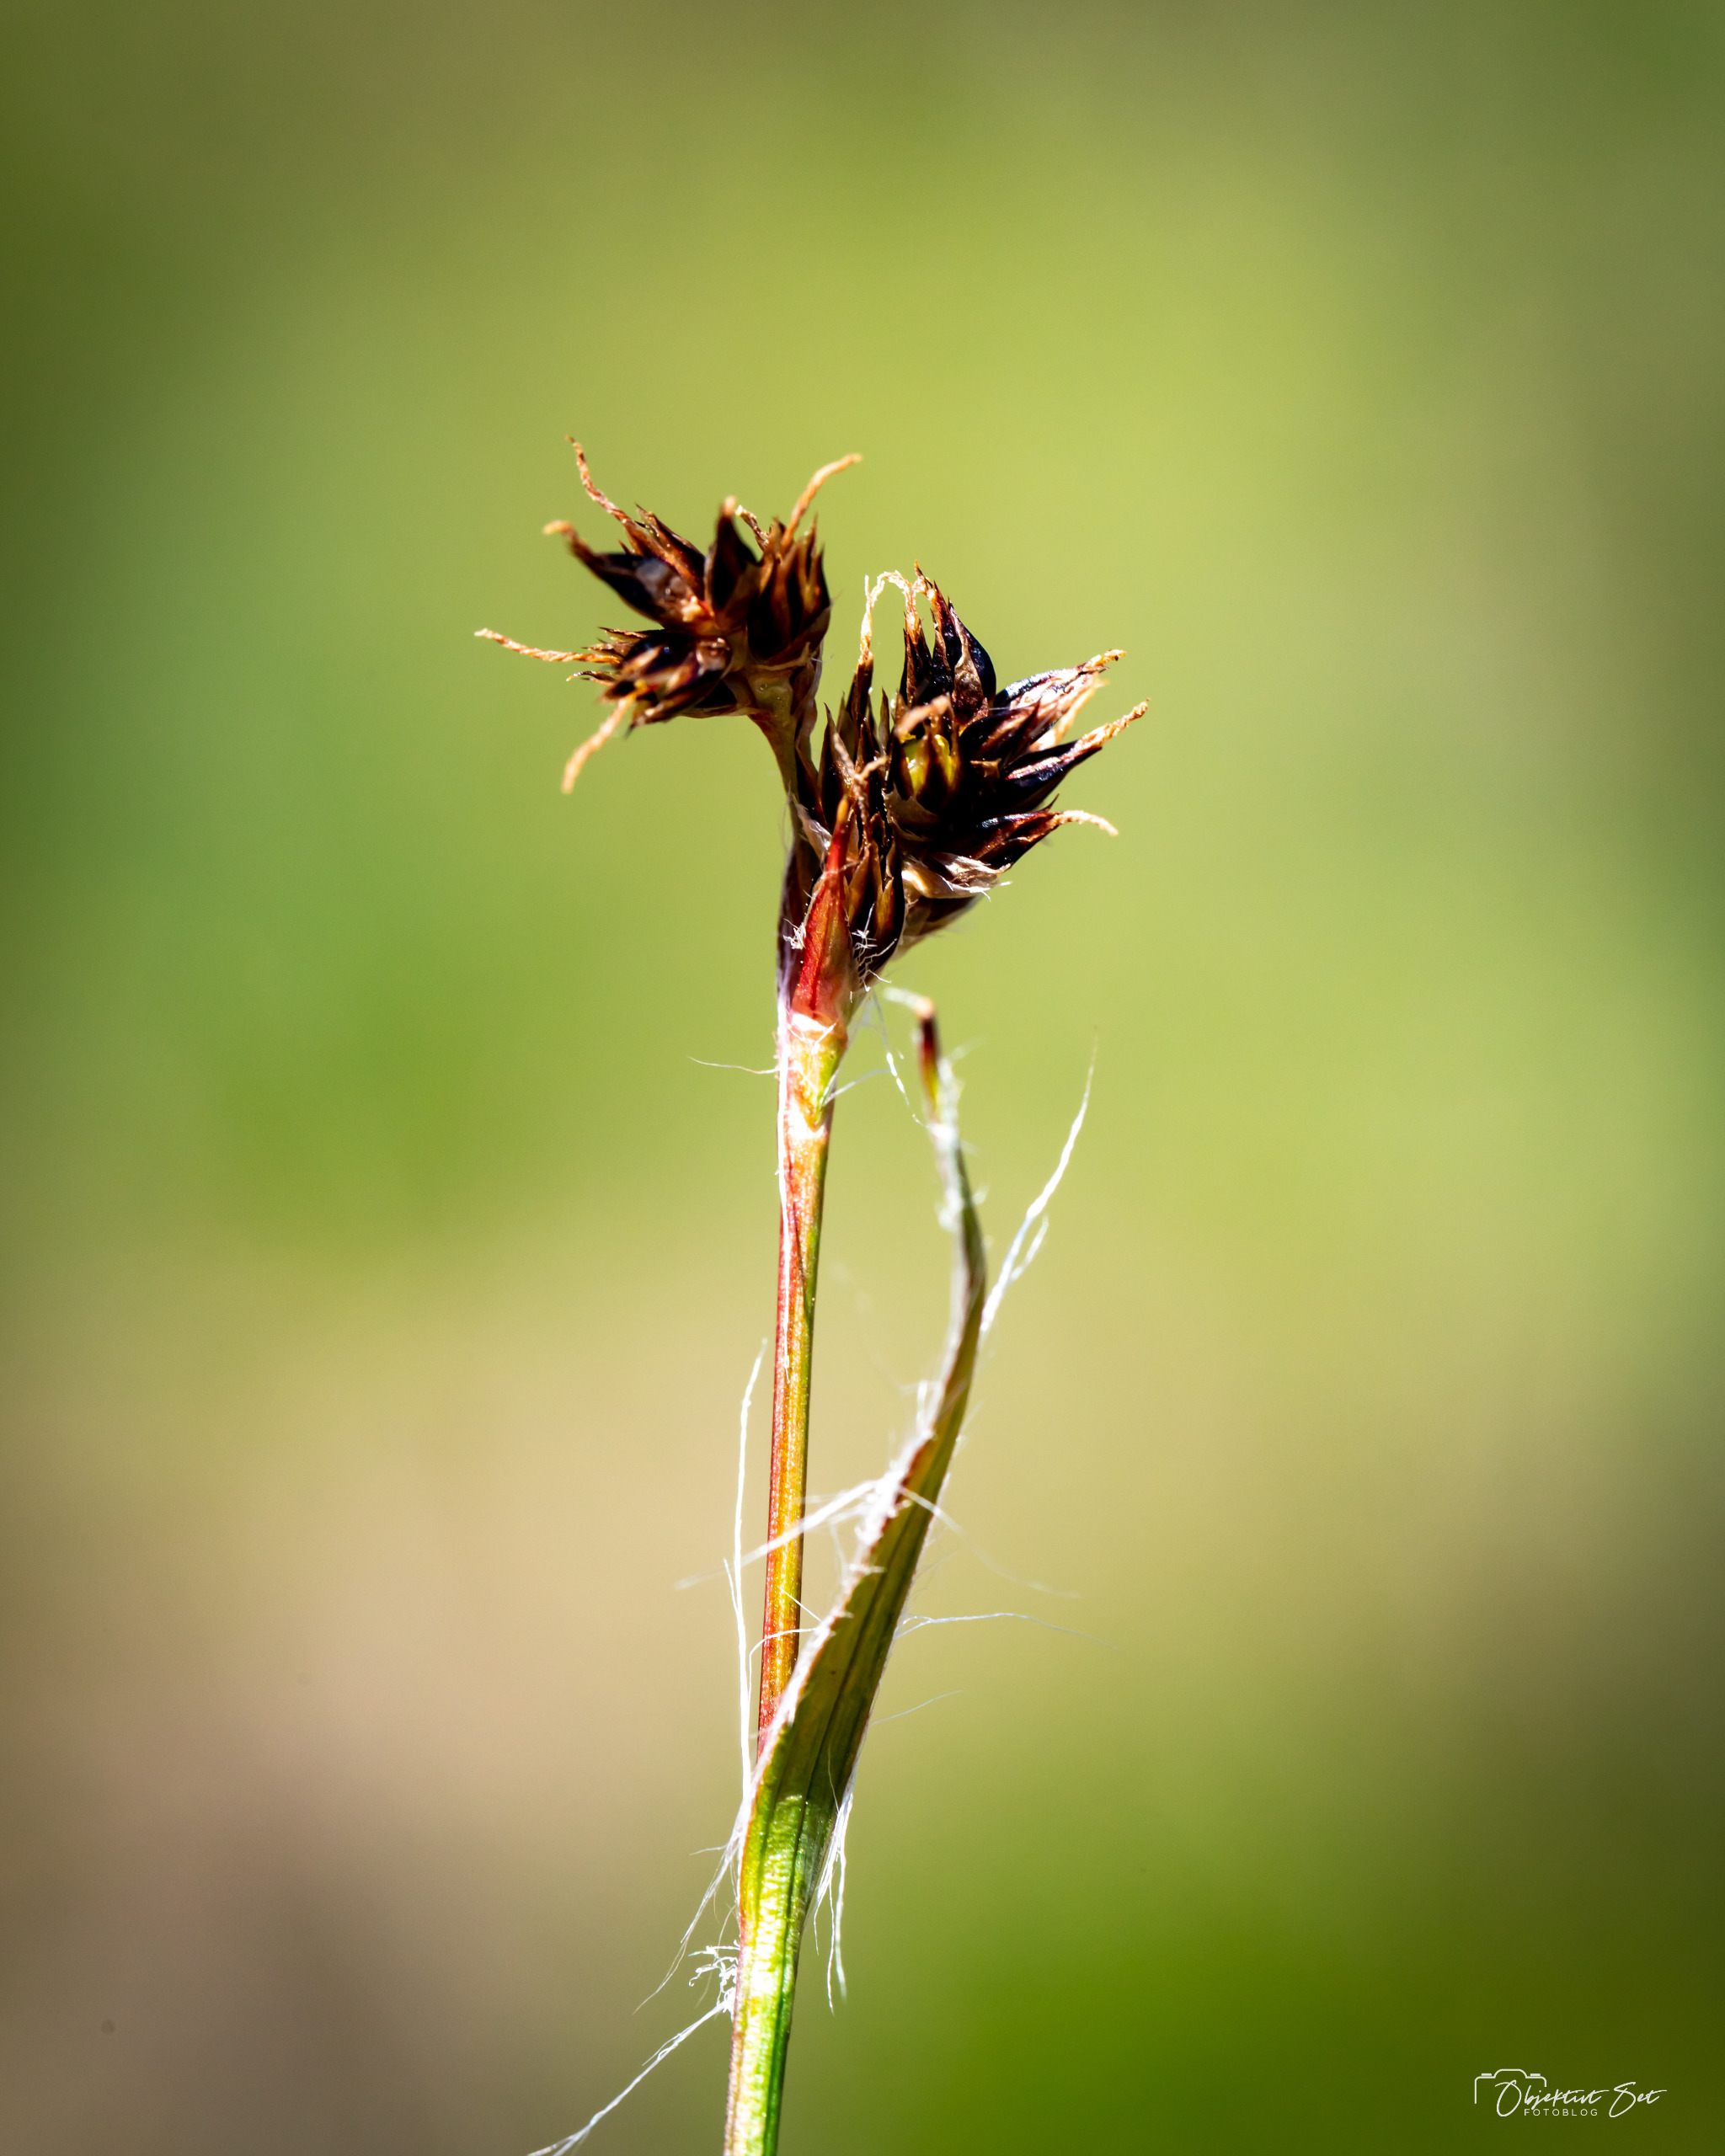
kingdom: Plantae
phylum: Tracheophyta
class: Liliopsida
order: Poales
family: Juncaceae
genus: Luzula
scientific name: Luzula campestris
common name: Mark-frytle
